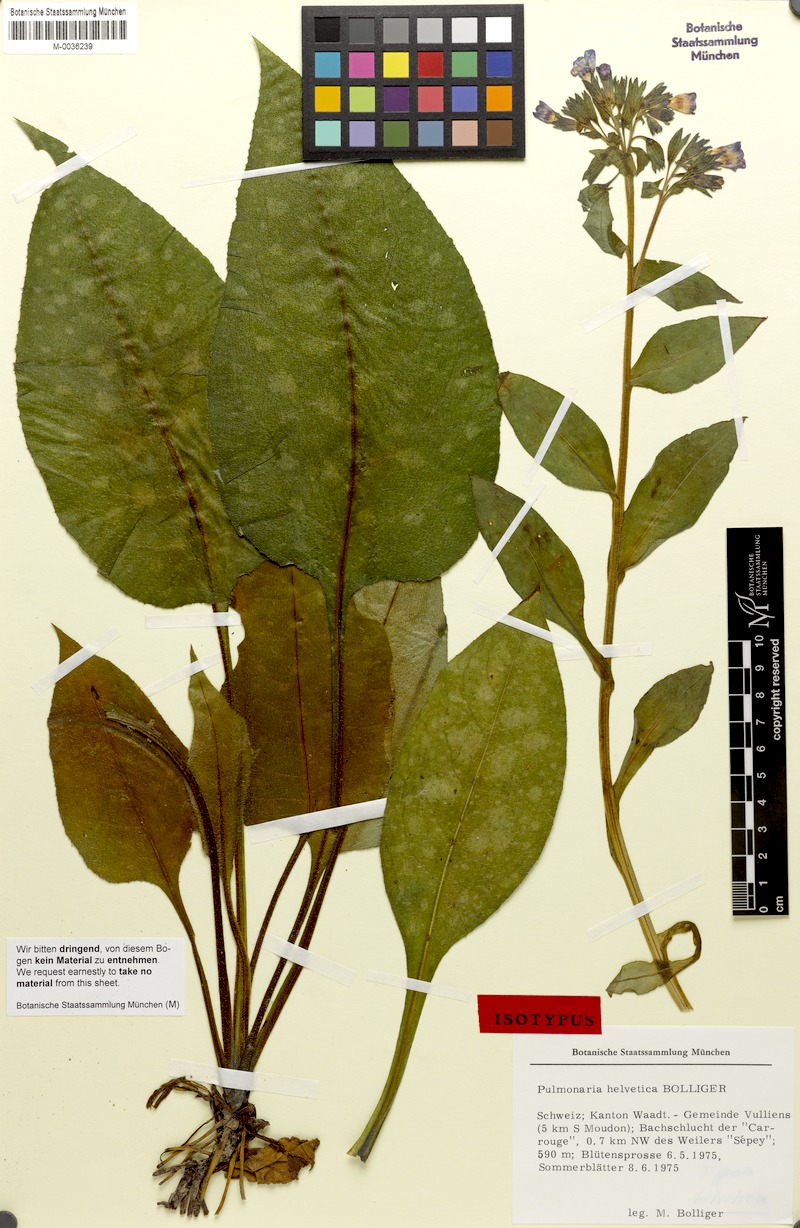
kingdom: Plantae
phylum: Tracheophyta
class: Magnoliopsida
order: Boraginales
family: Boraginaceae
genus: Pulmonaria
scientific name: Pulmonaria helvetica
